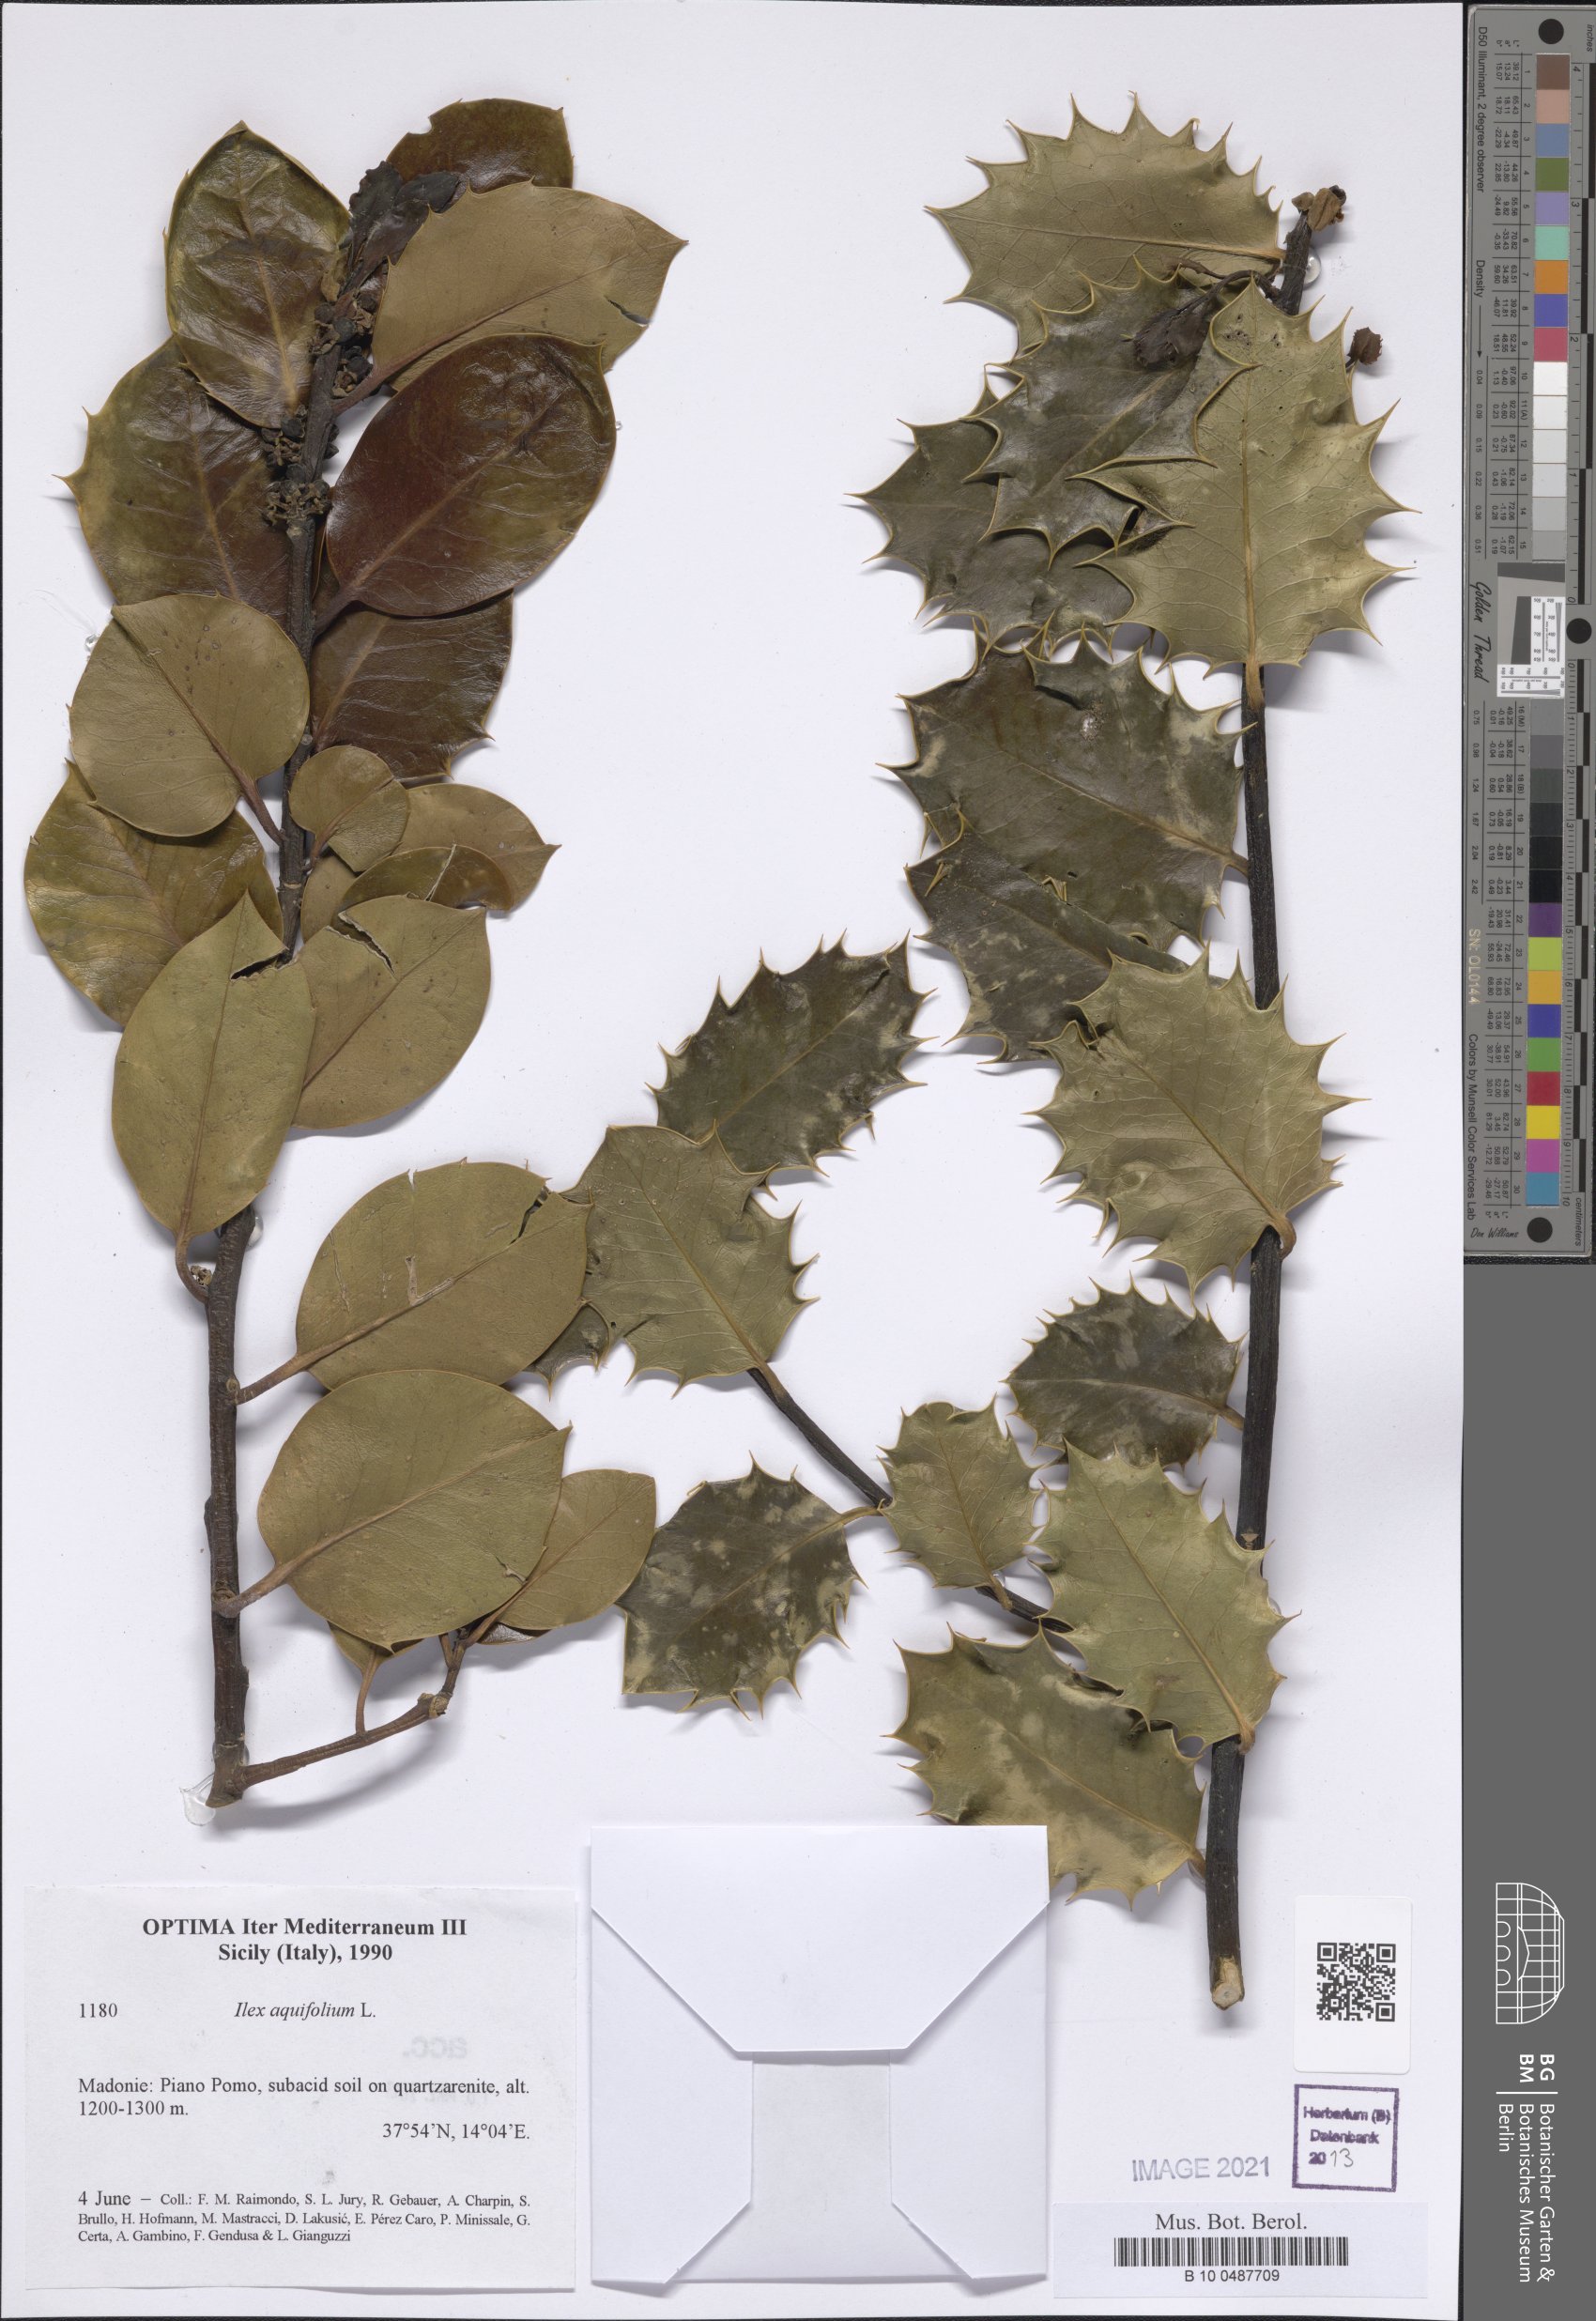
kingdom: Plantae
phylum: Tracheophyta
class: Magnoliopsida
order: Aquifoliales
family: Aquifoliaceae
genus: Ilex
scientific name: Ilex aquifolium
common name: English holly
